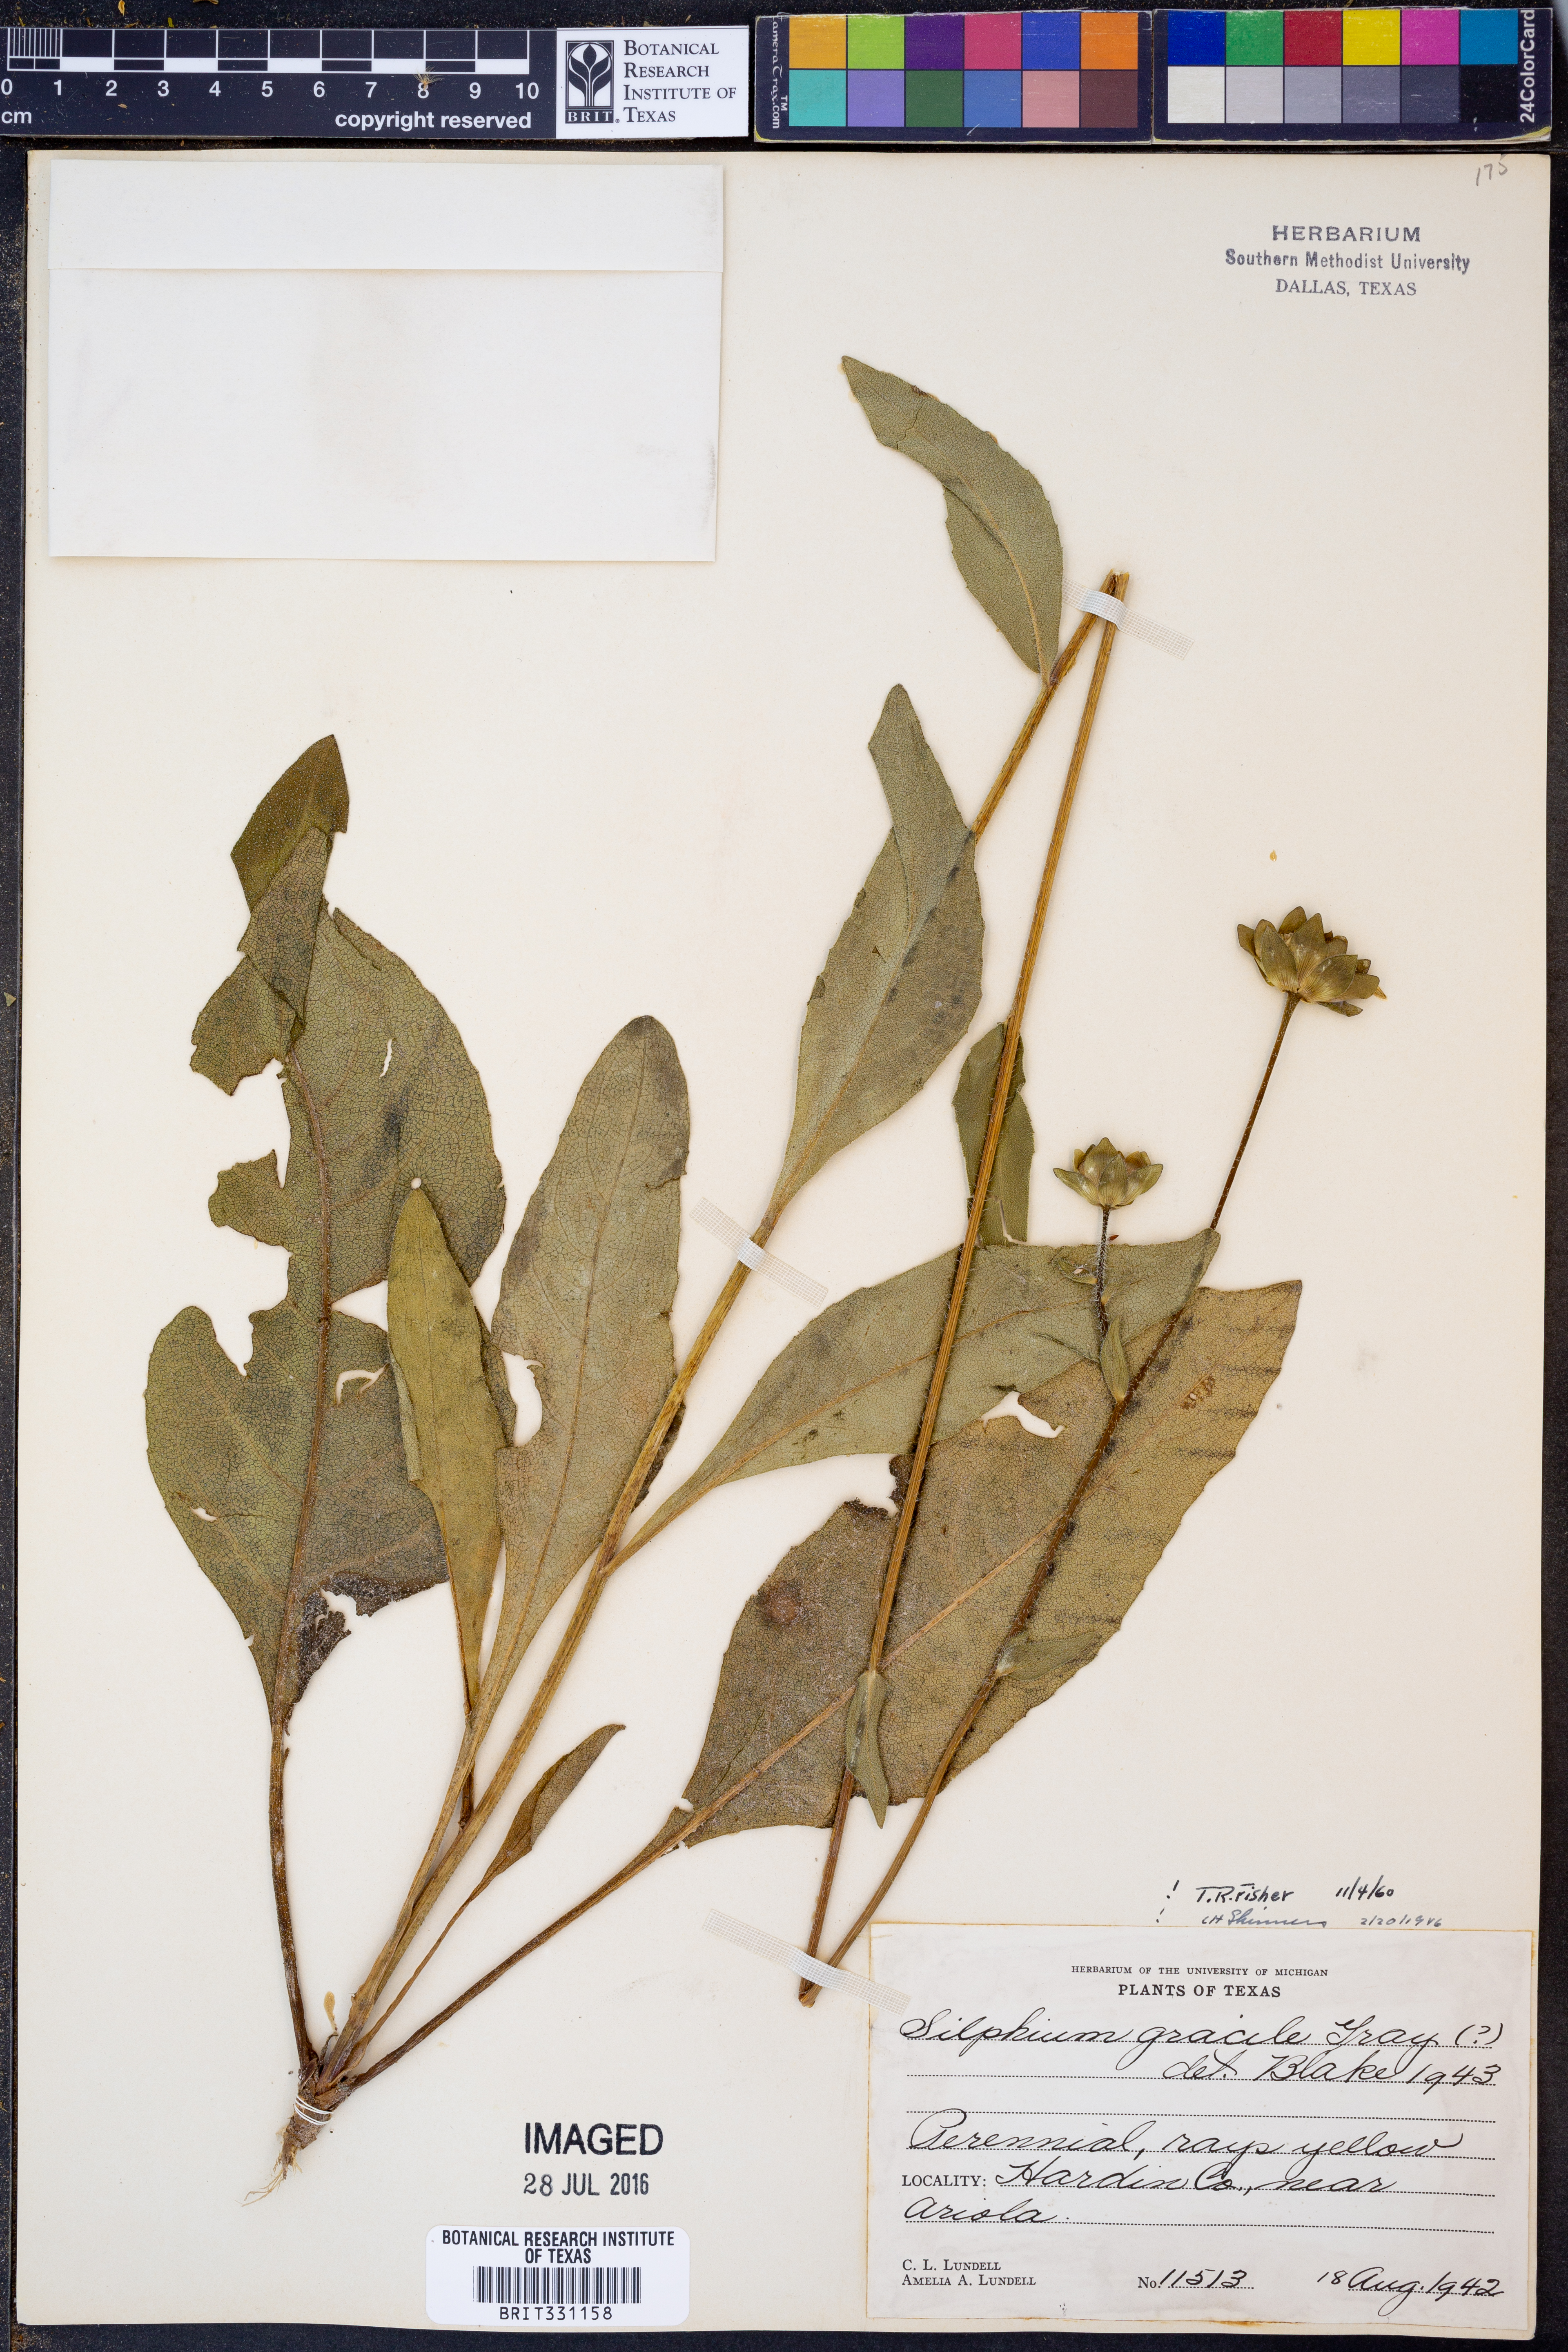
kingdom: Plantae
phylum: Tracheophyta
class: Magnoliopsida
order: Asterales
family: Asteraceae
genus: Silphium
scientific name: Silphium radula
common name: Roughleaf rosinweed
